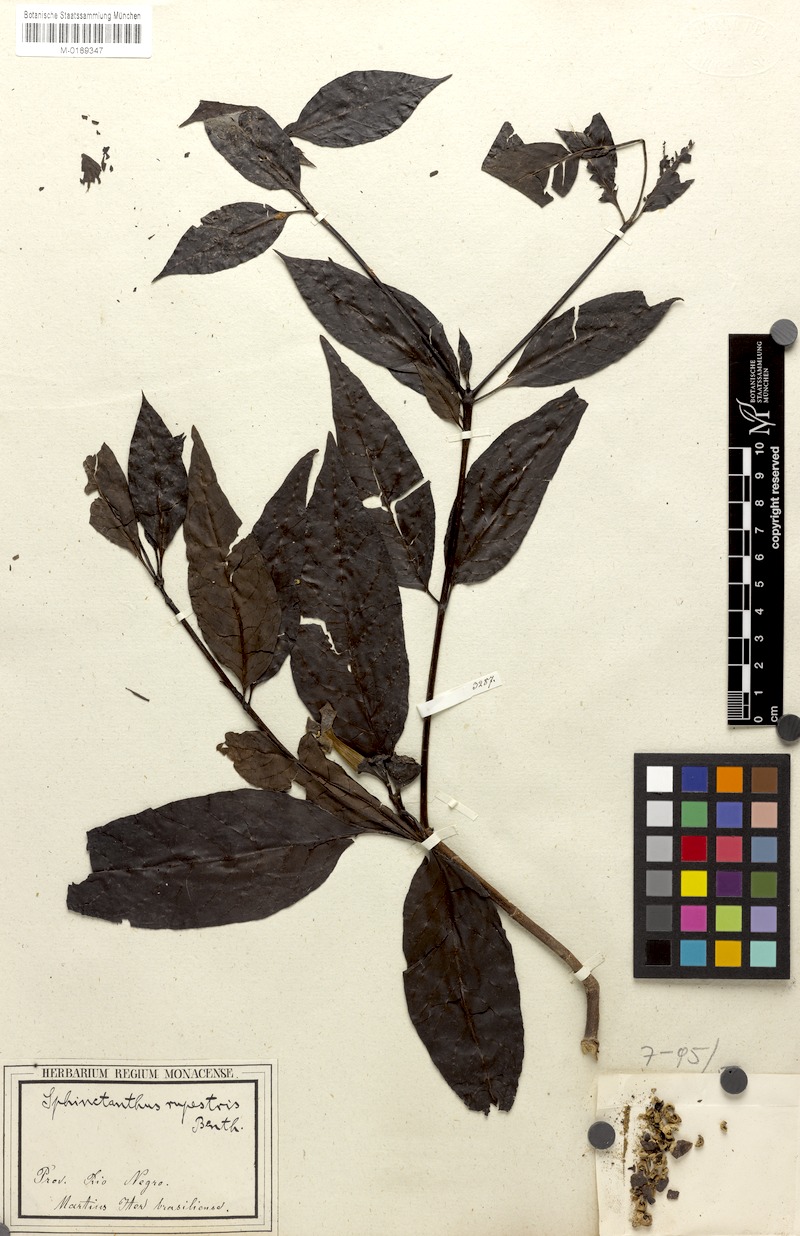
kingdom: Plantae
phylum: Tracheophyta
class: Magnoliopsida
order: Gentianales
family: Rubiaceae
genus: Sphinctanthus
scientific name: Sphinctanthus striiflorus
